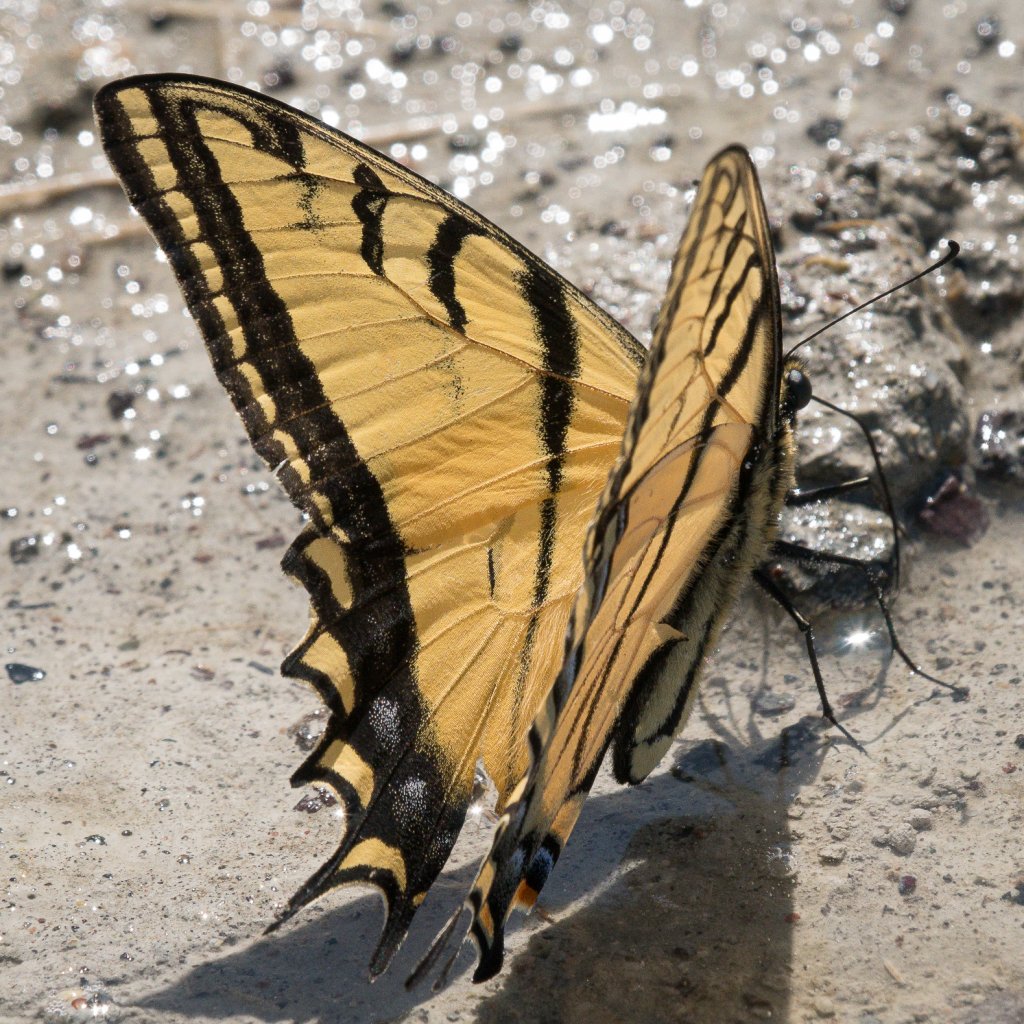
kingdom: Animalia
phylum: Arthropoda
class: Insecta
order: Lepidoptera
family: Papilionidae
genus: Papilio
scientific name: Papilio multicaudata
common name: Two-tailed Swallowtail
